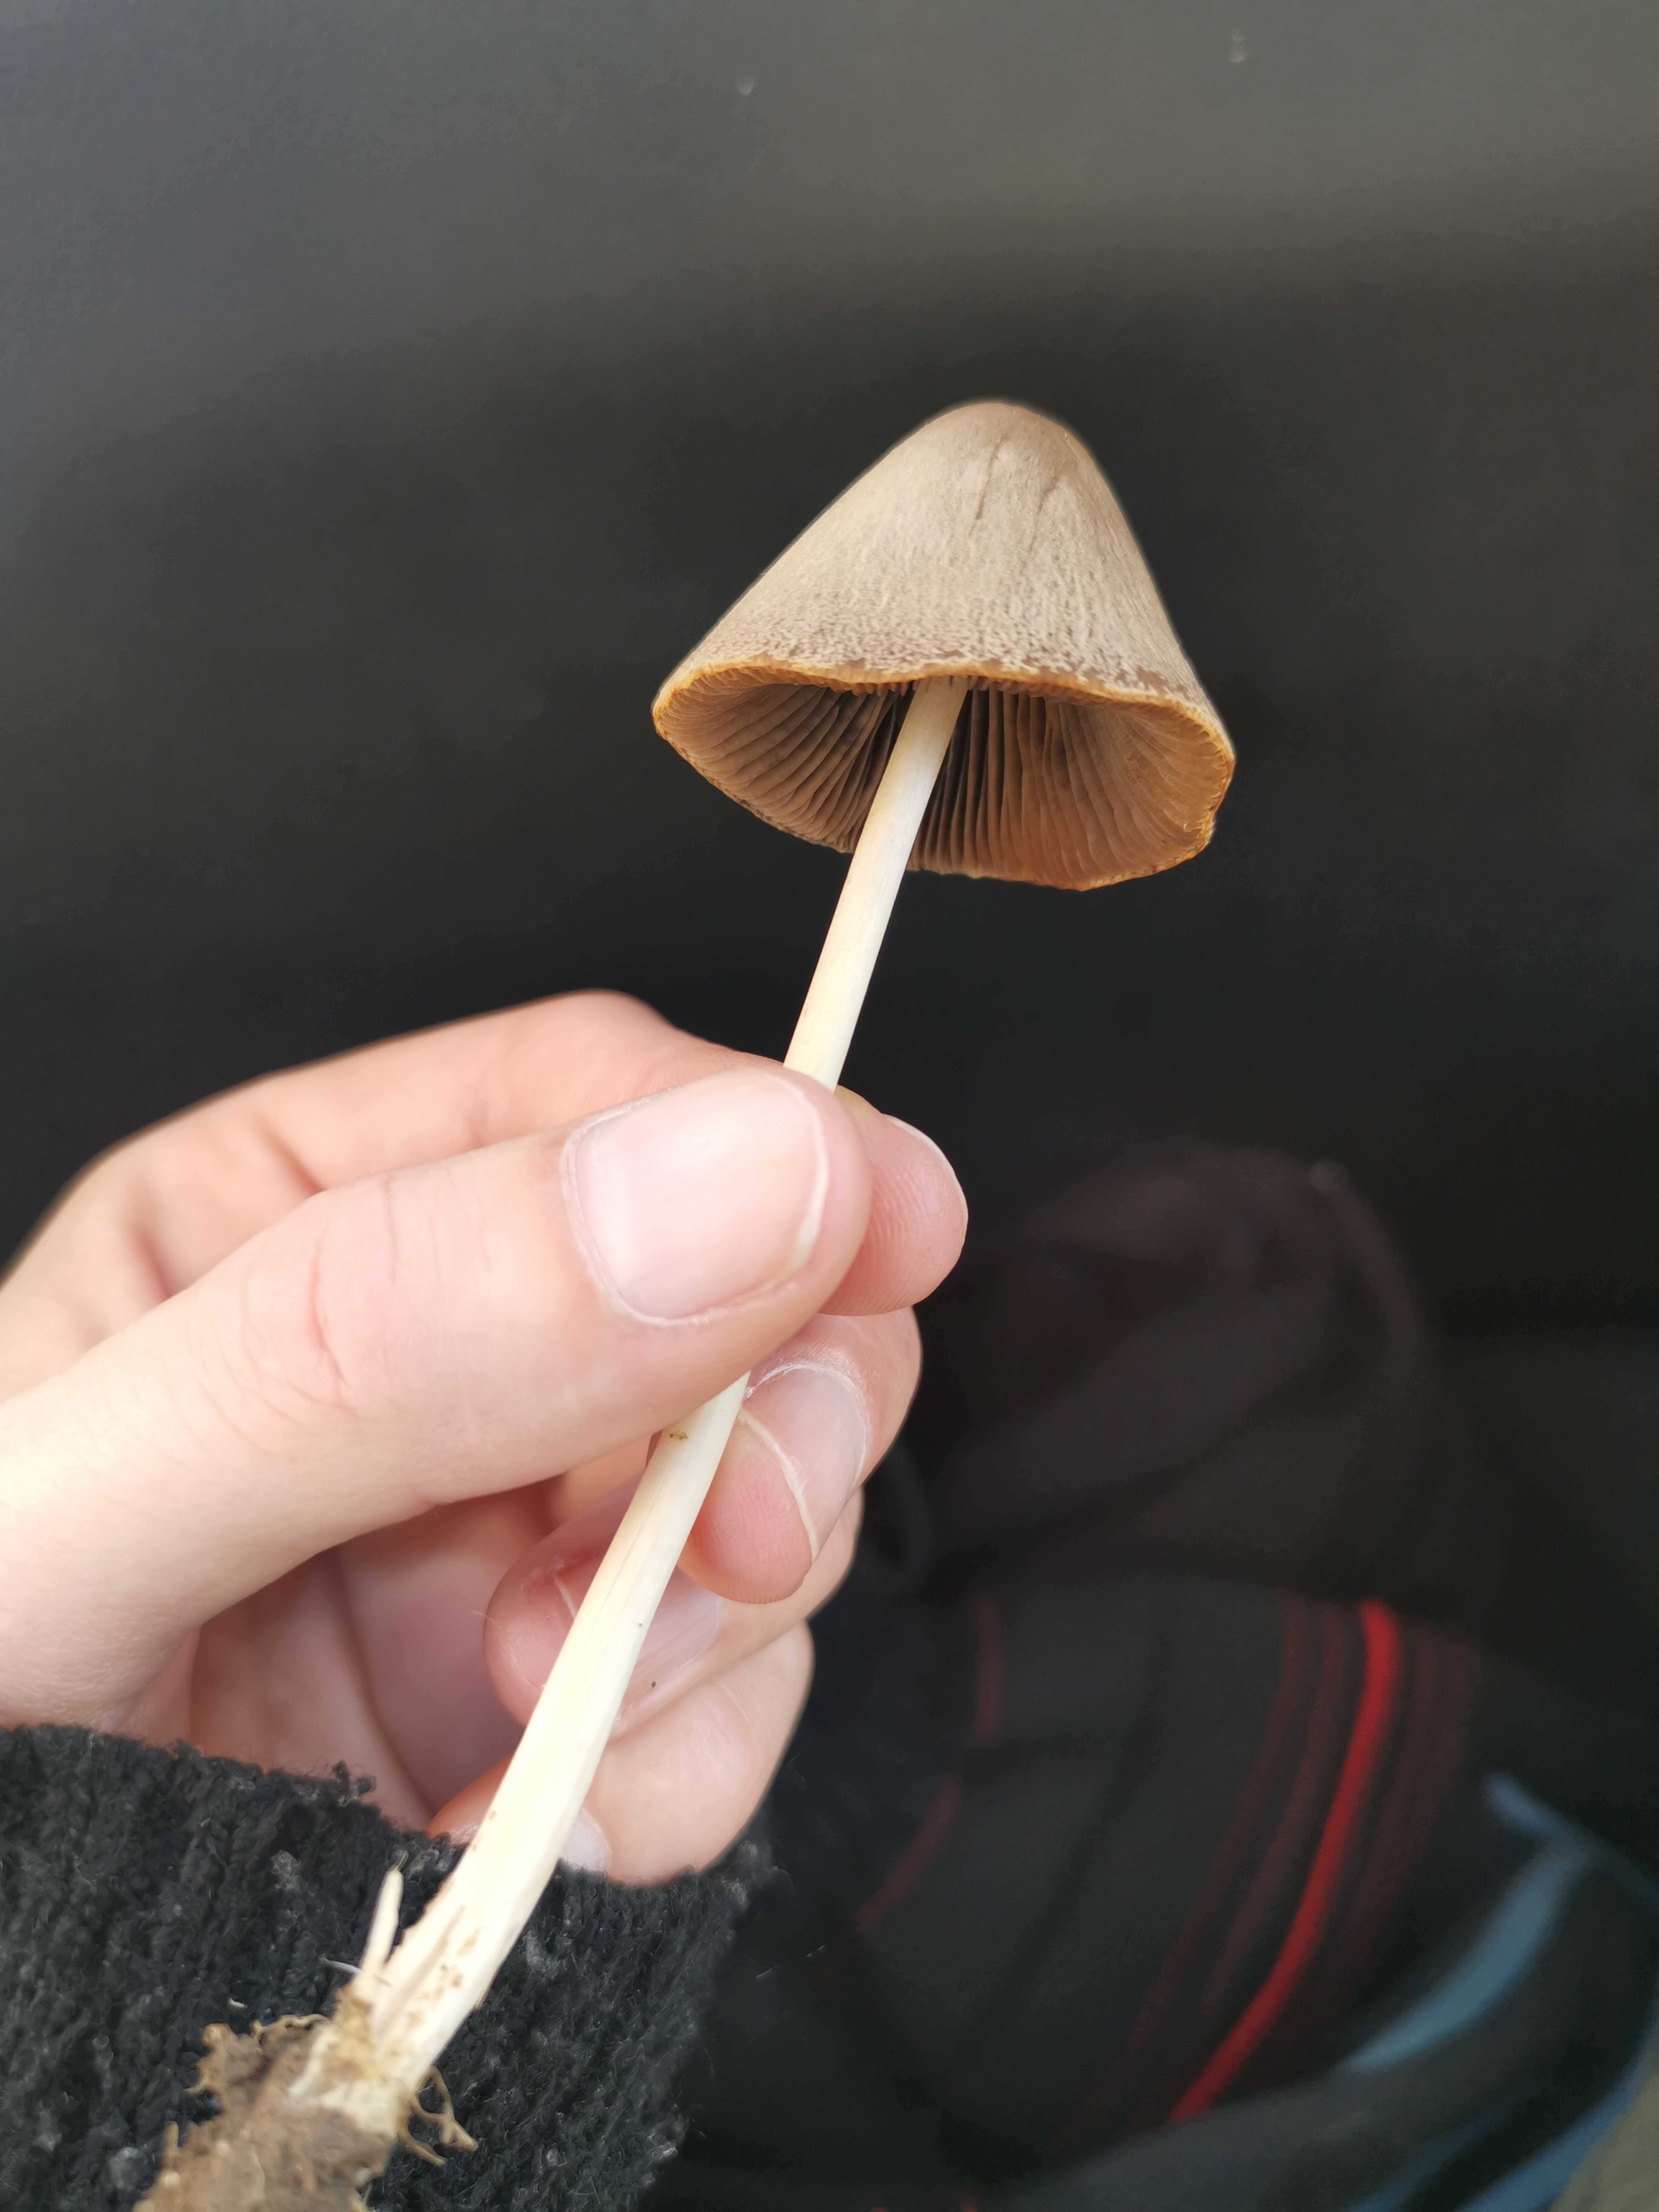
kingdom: Fungi
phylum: Basidiomycota
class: Agaricomycetes
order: Agaricales
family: Psathyrellaceae
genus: Parasola
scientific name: Parasola conopilea
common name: kegle-hjulhat
